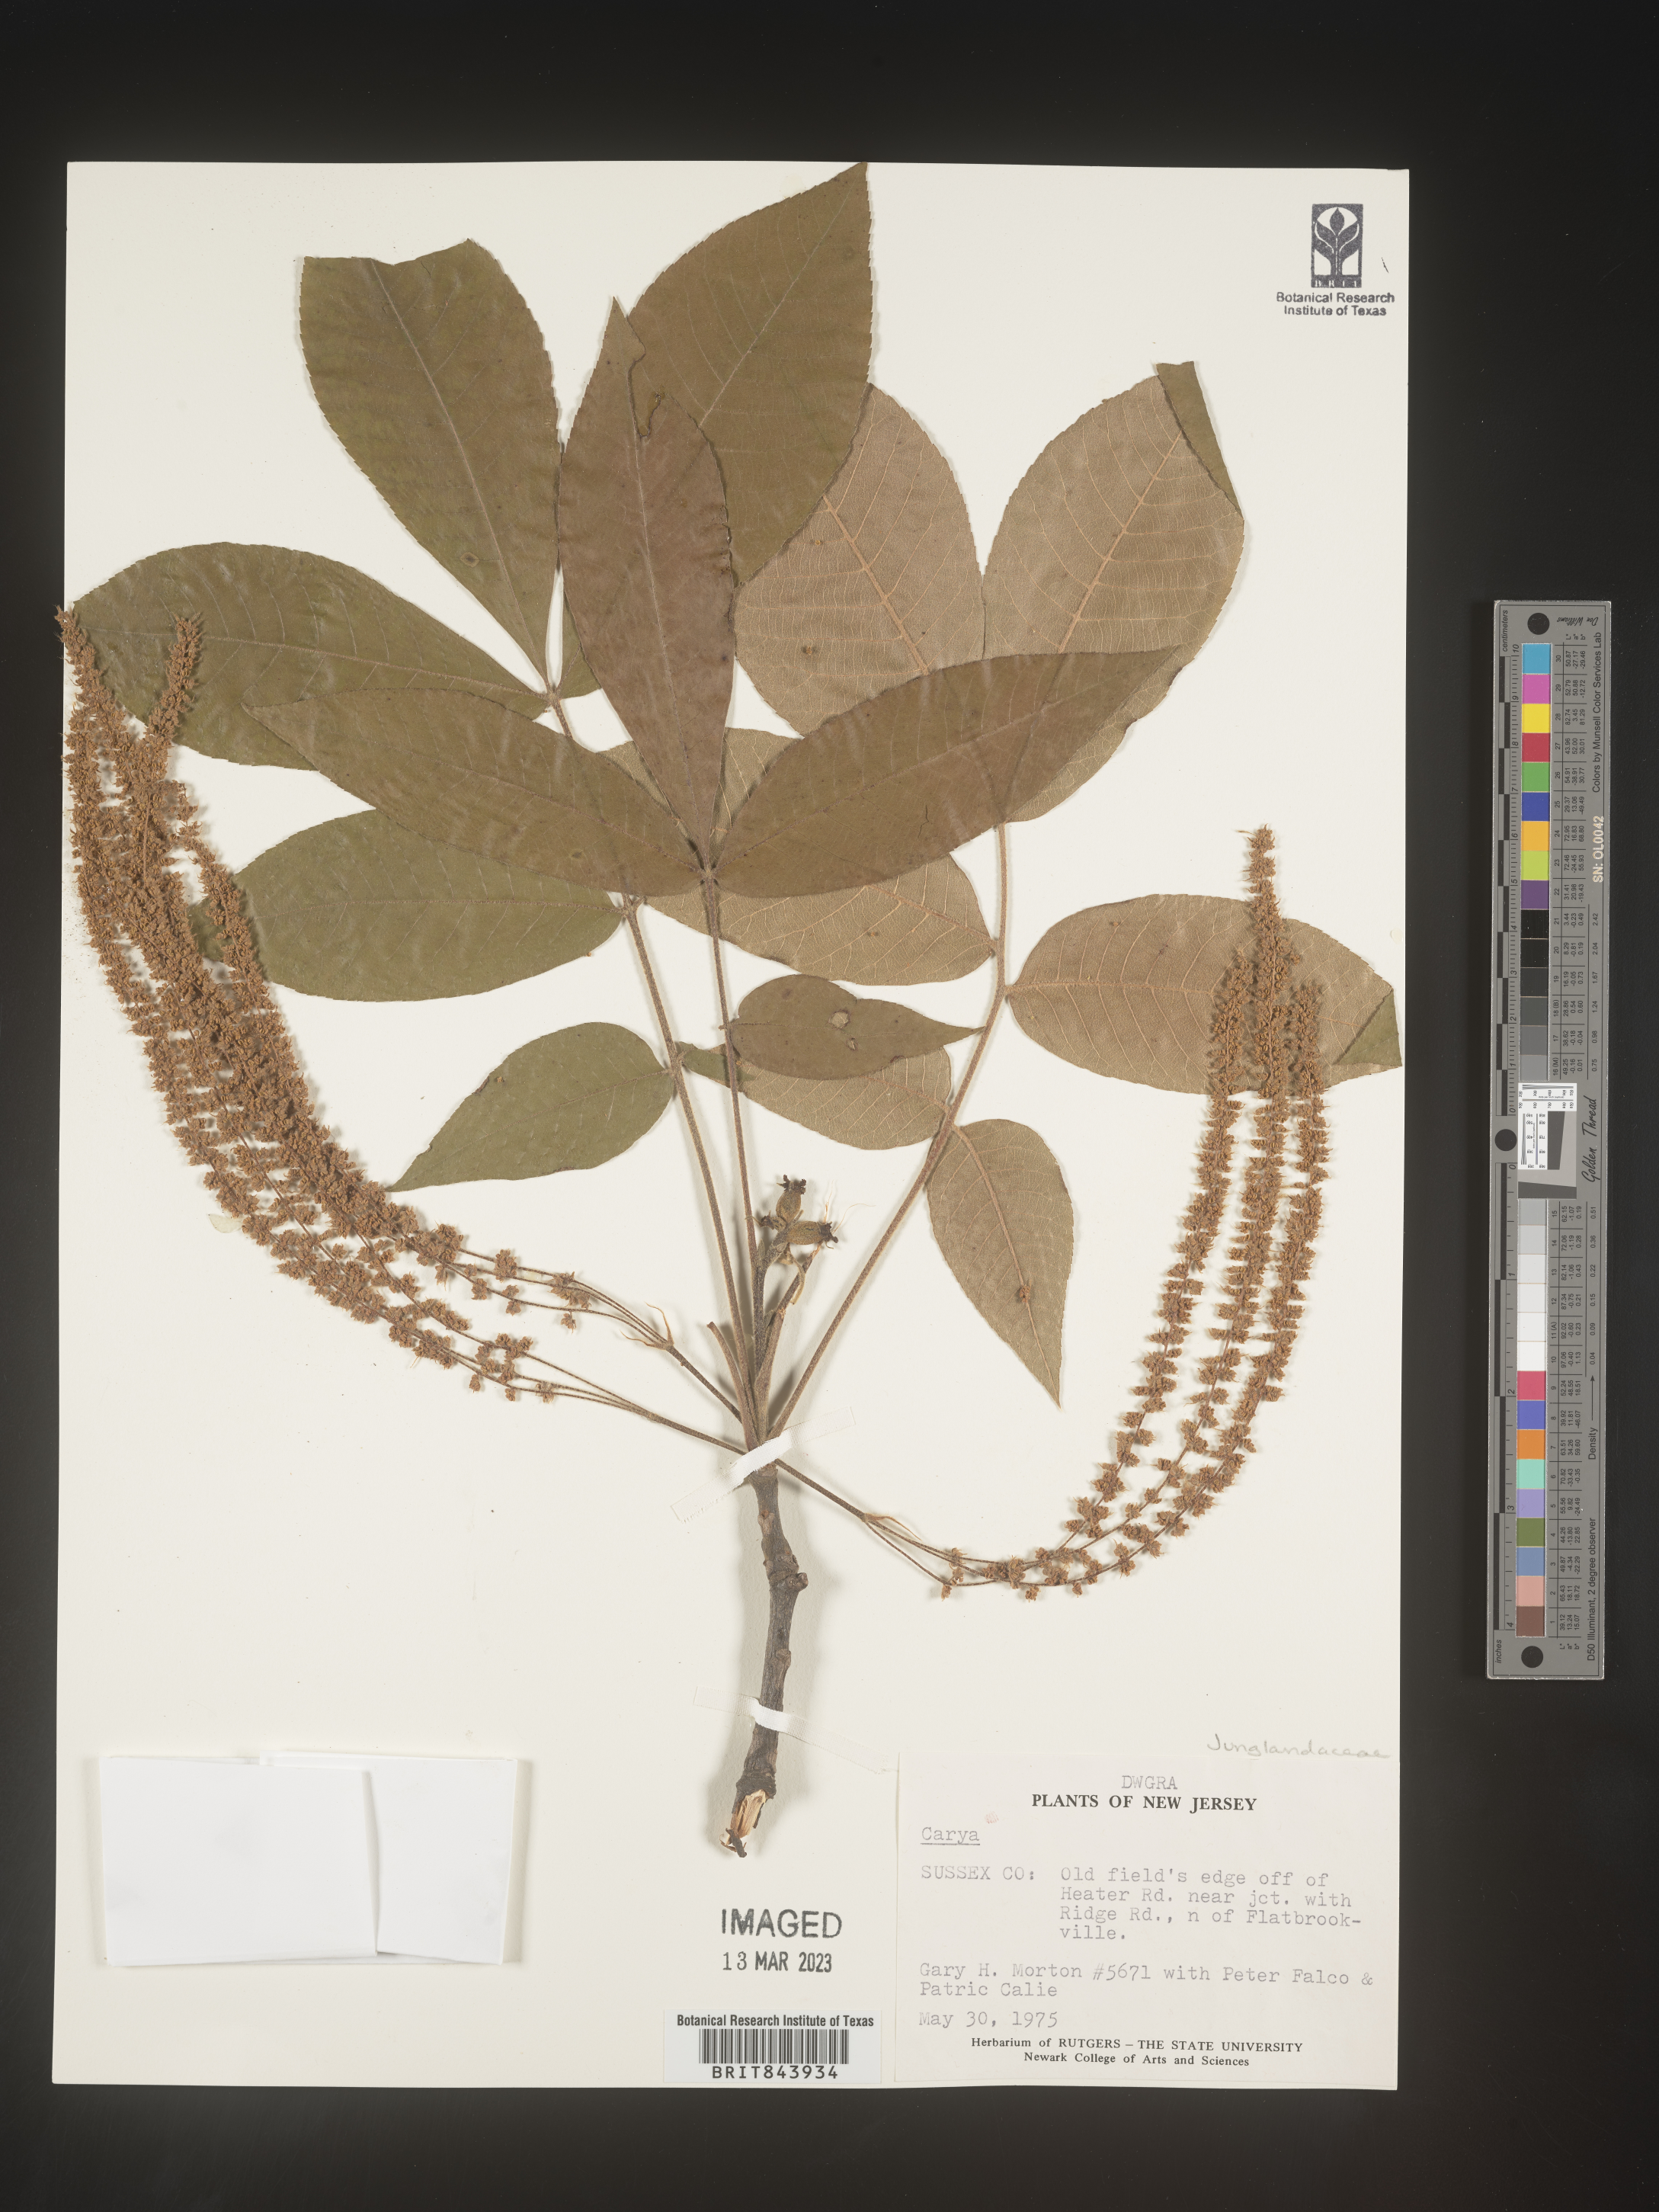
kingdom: Plantae
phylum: Tracheophyta
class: Magnoliopsida
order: Fagales
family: Juglandaceae
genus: Carya
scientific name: Carya
